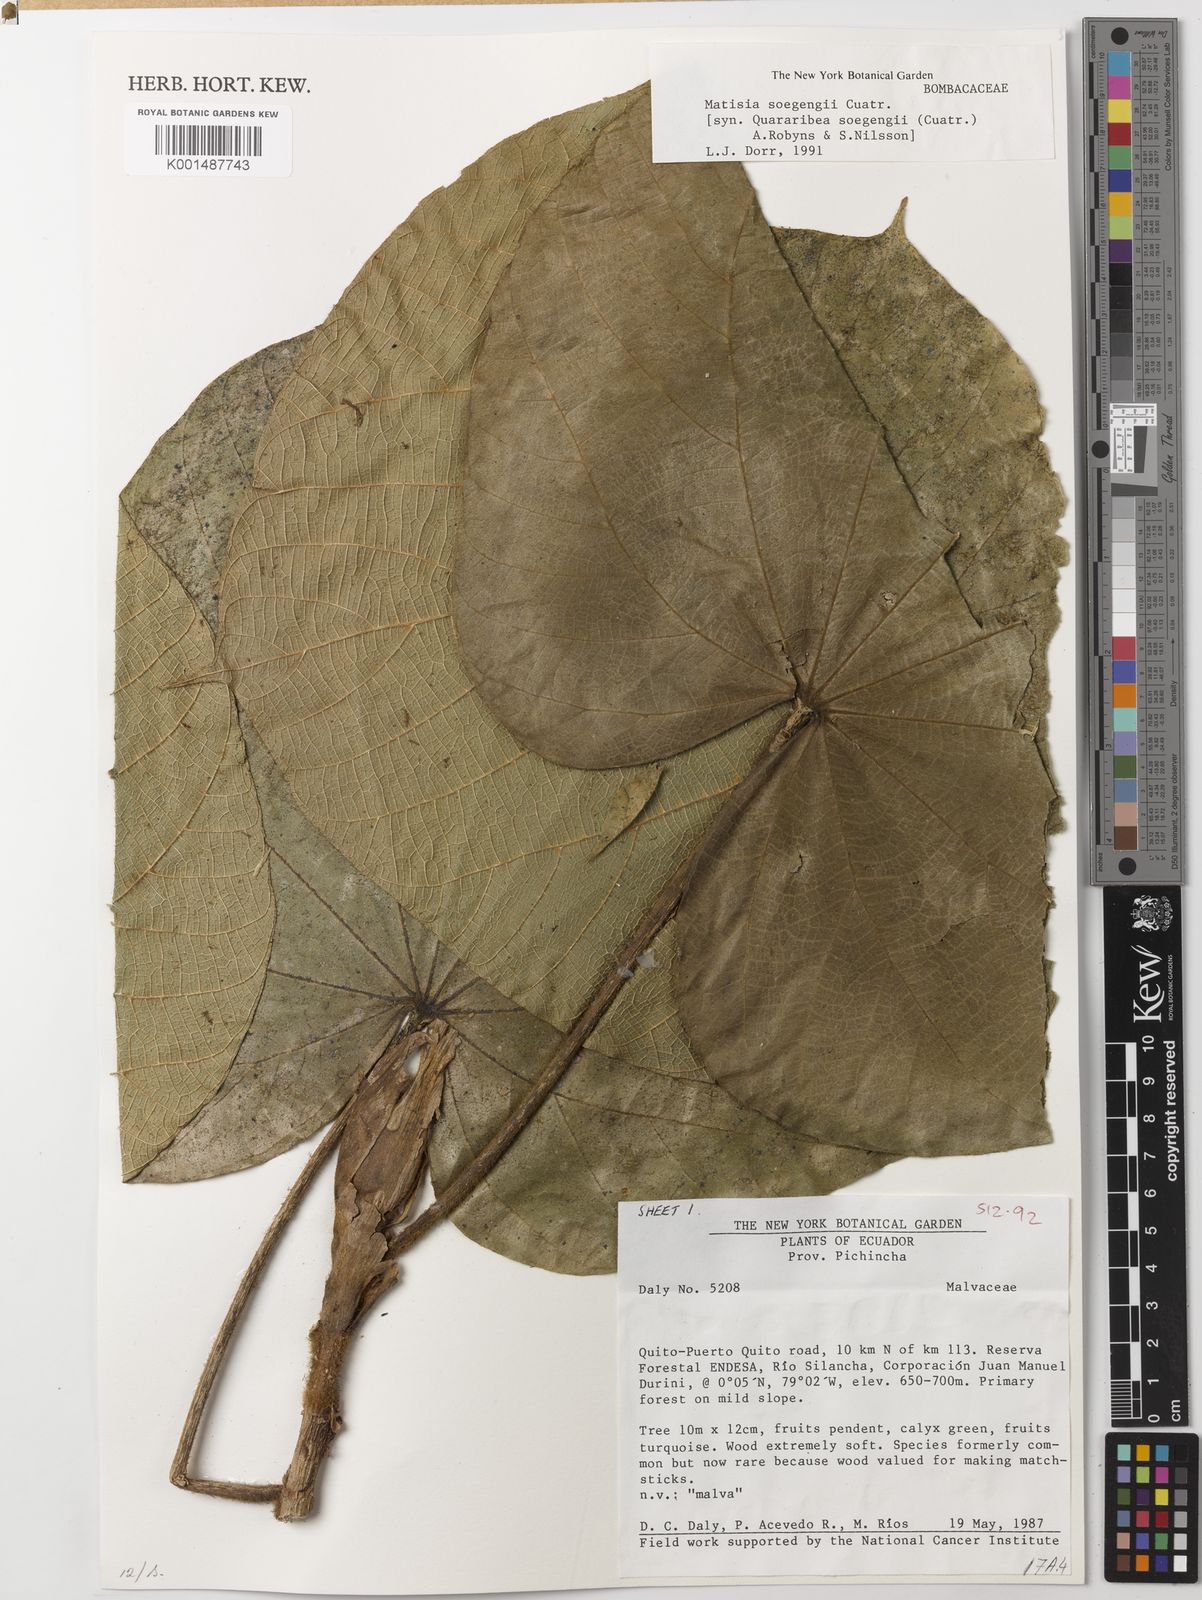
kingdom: Plantae
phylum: Tracheophyta
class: Magnoliopsida
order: Malvales
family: Malvaceae
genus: Matisia
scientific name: Matisia soegengii
